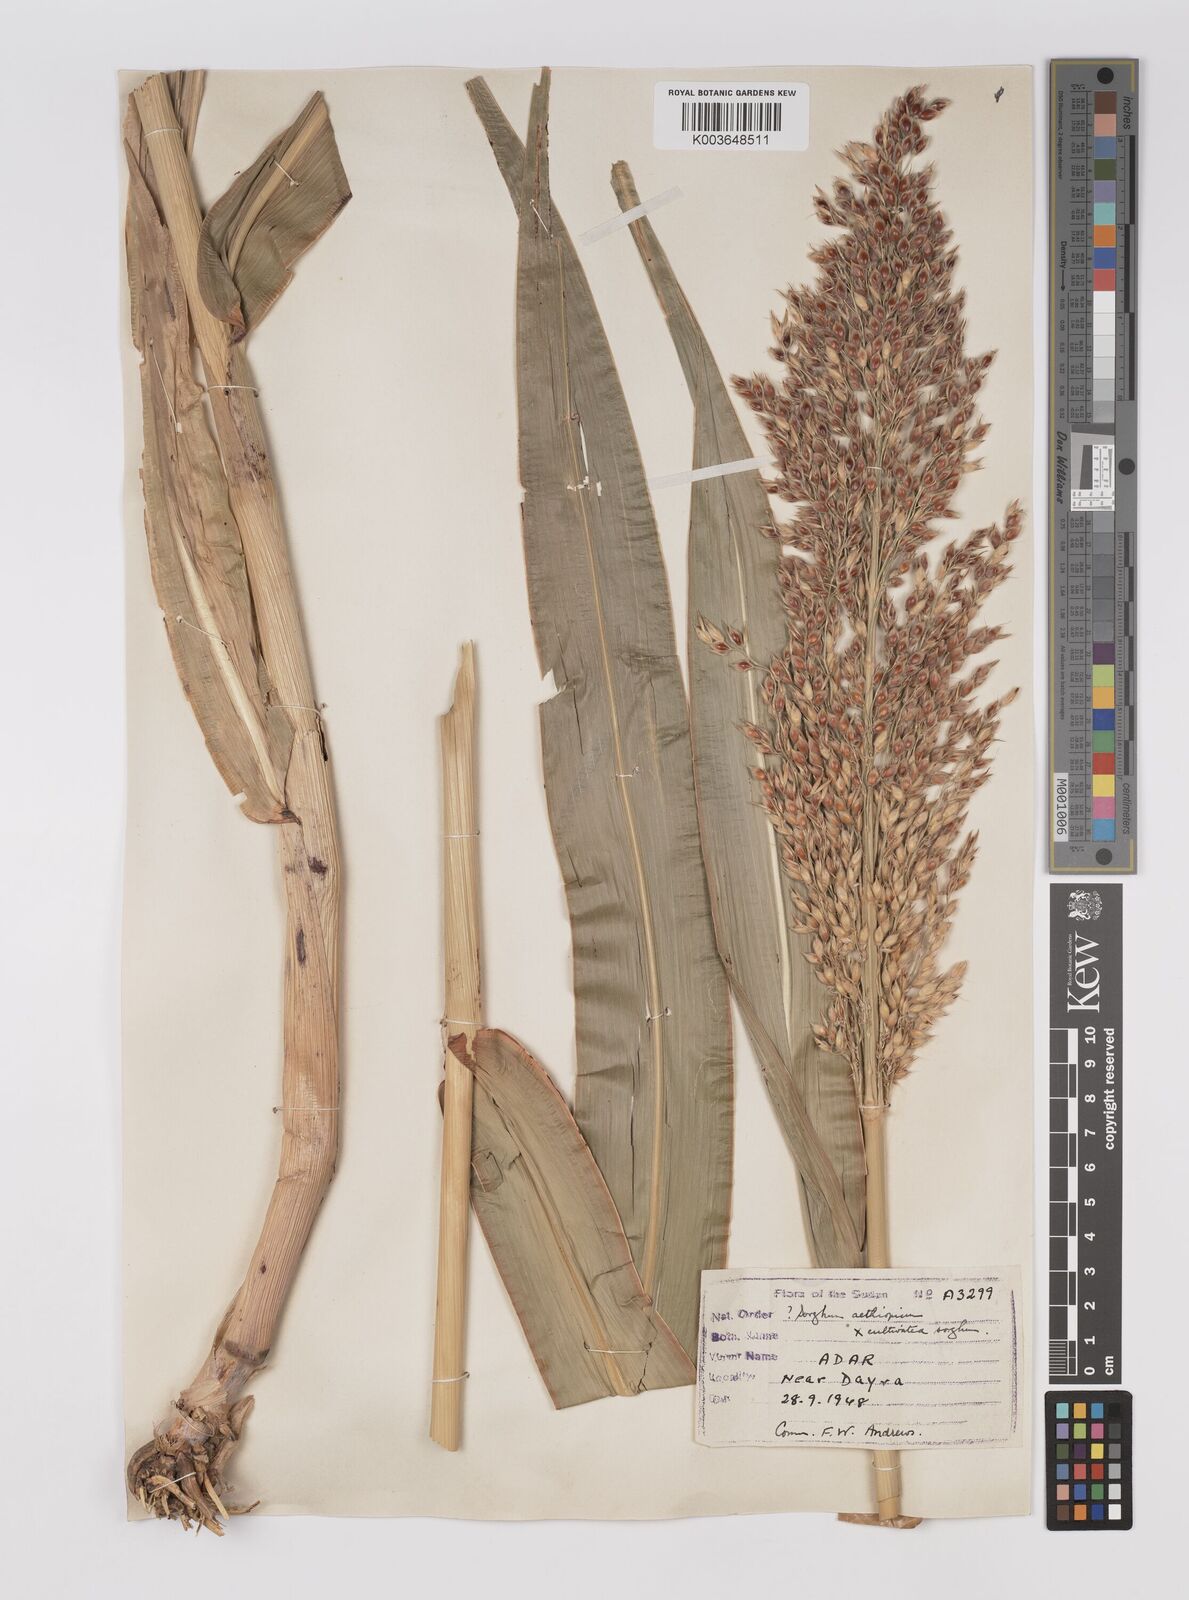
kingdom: Plantae
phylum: Tracheophyta
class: Liliopsida
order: Poales
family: Poaceae
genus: Sorghum
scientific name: Sorghum drummondii
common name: Sudangrass
